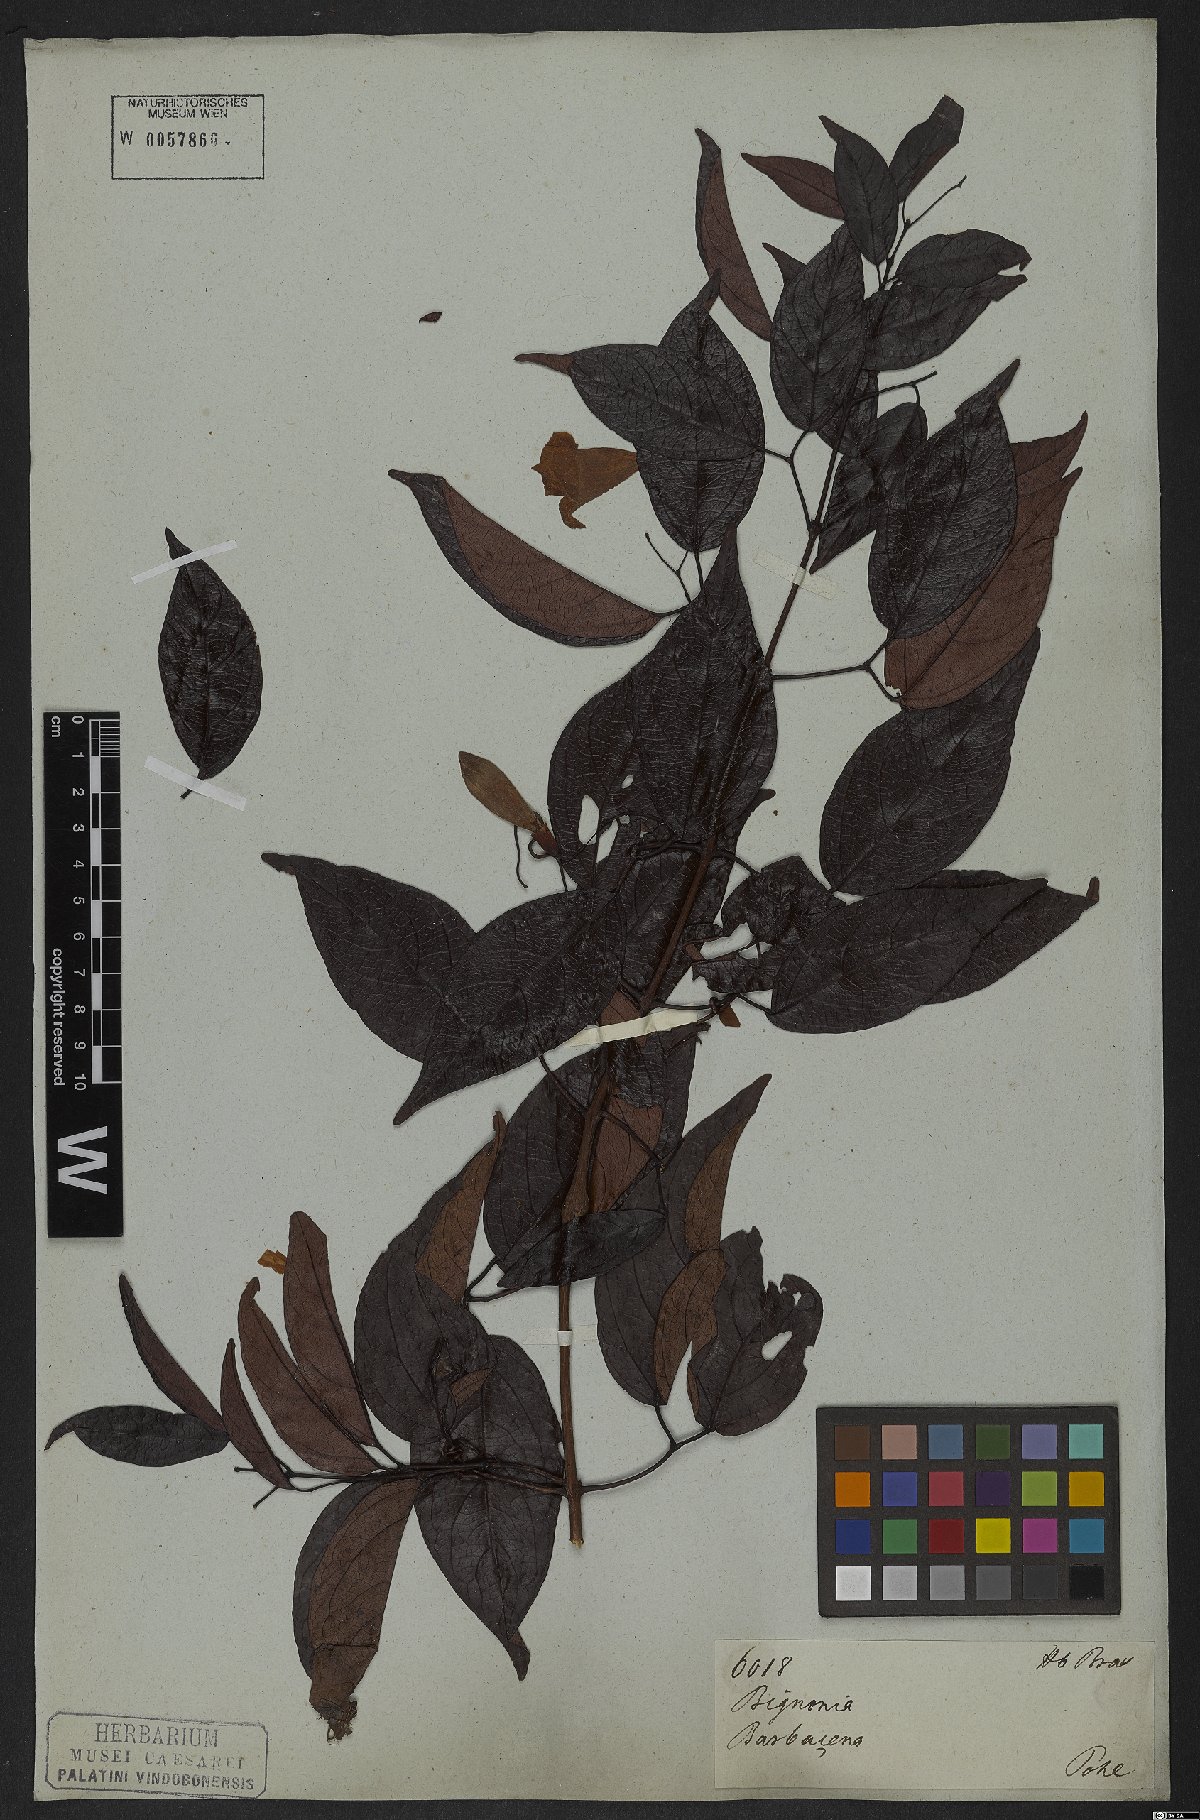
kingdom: Plantae
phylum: Tracheophyta
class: Magnoliopsida
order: Lamiales
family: Bignoniaceae
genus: Lundia
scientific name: Lundia nitidula
